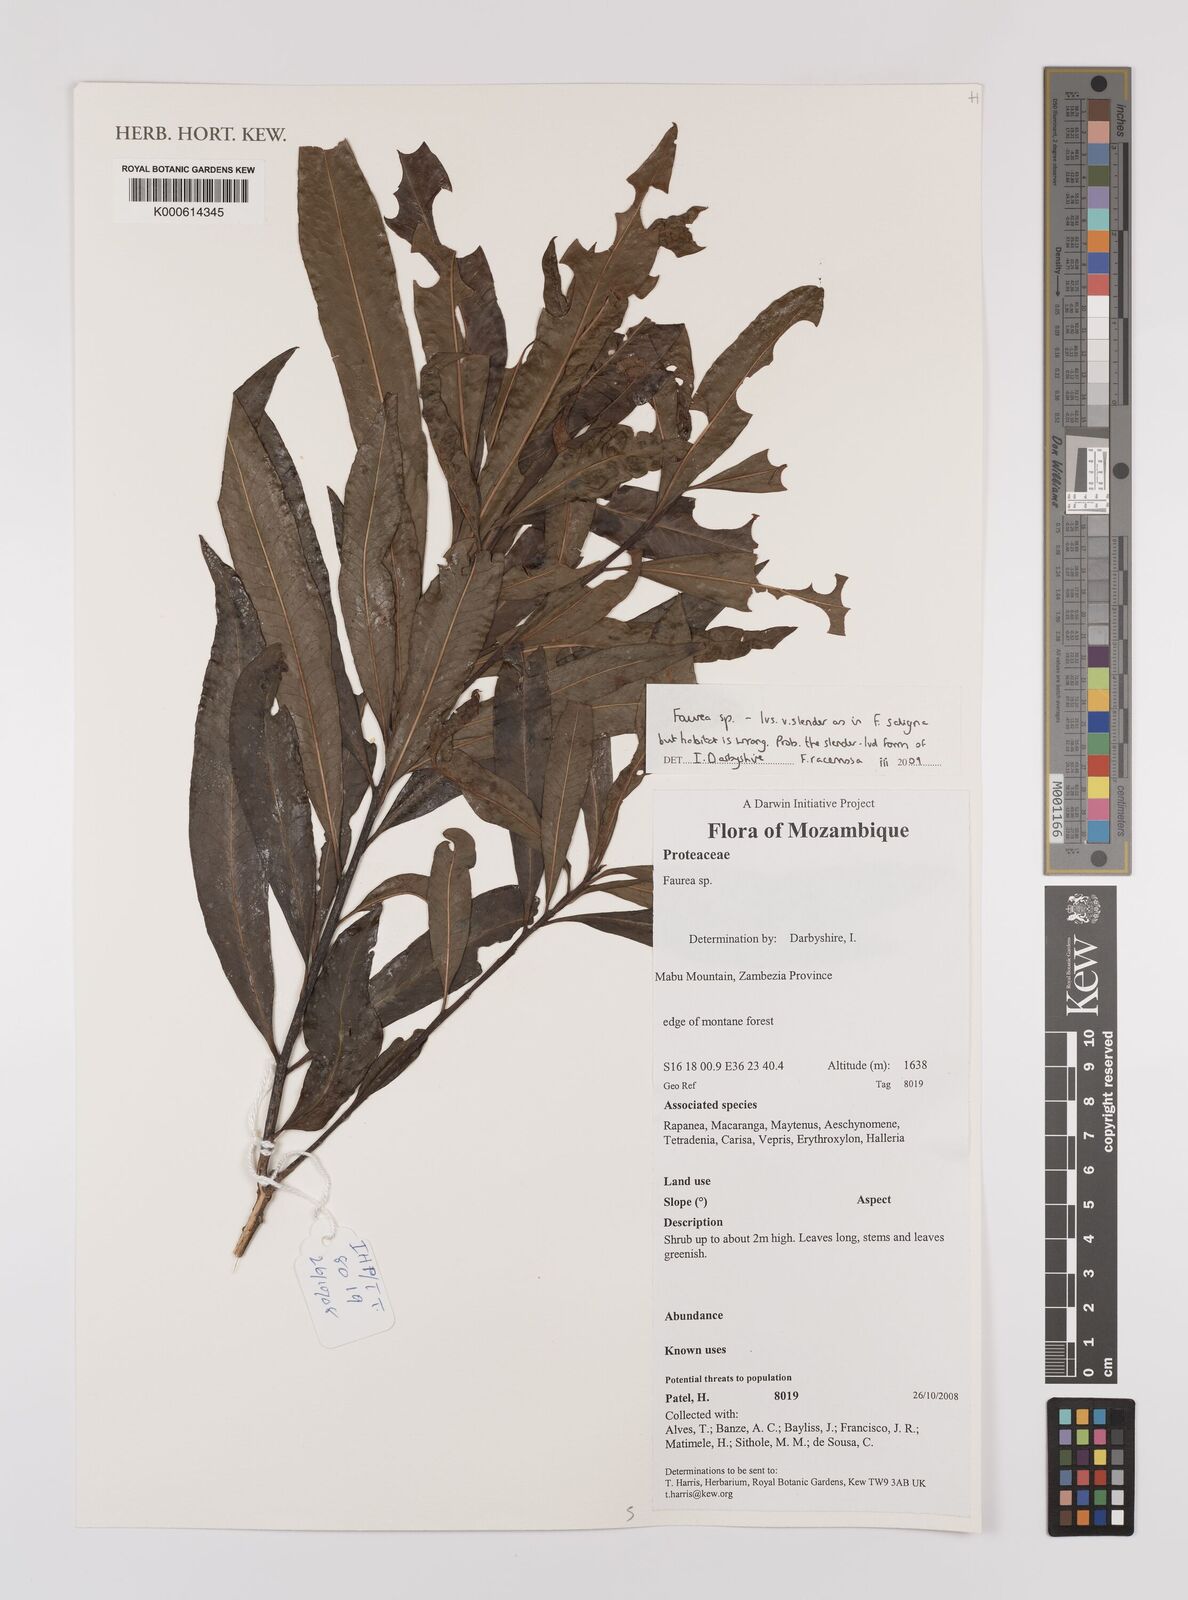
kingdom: Plantae
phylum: Tracheophyta
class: Magnoliopsida
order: Proteales
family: Proteaceae
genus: Faurea
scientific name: Faurea
